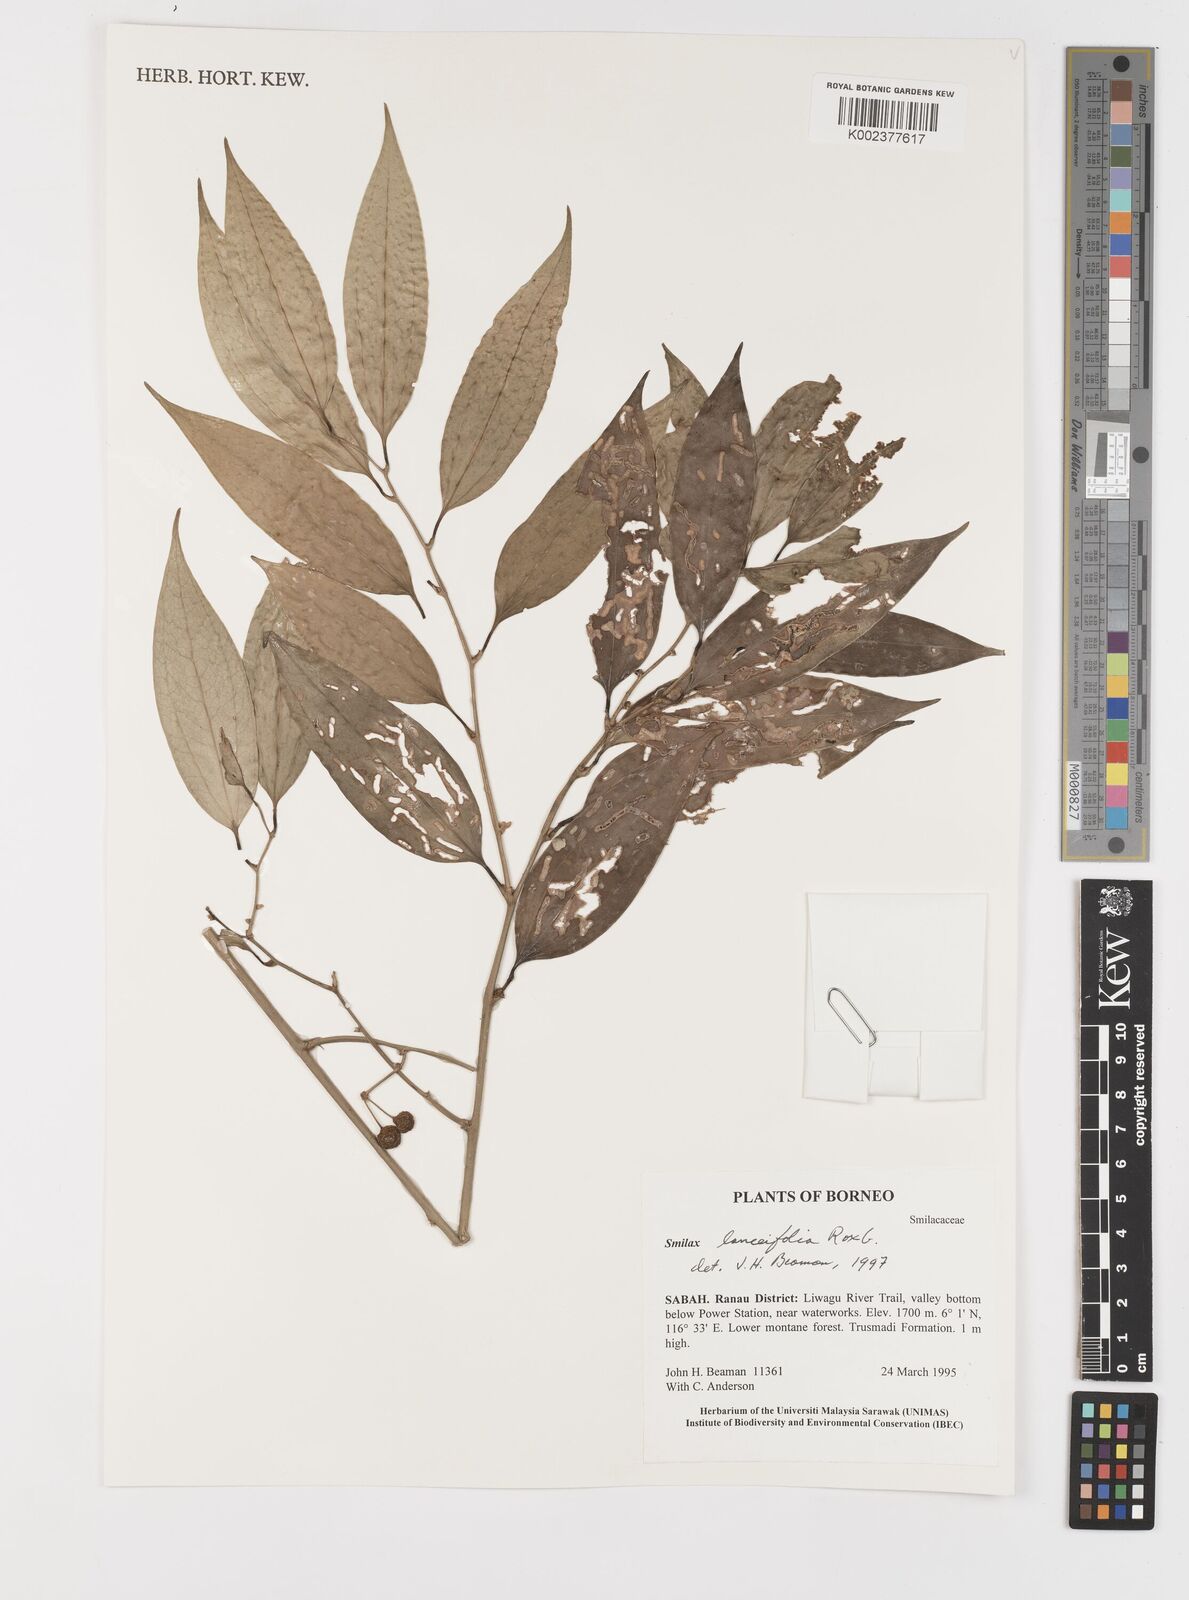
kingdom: Plantae
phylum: Tracheophyta
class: Liliopsida
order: Liliales
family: Smilacaceae
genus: Smilax
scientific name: Smilax lanceifolia
